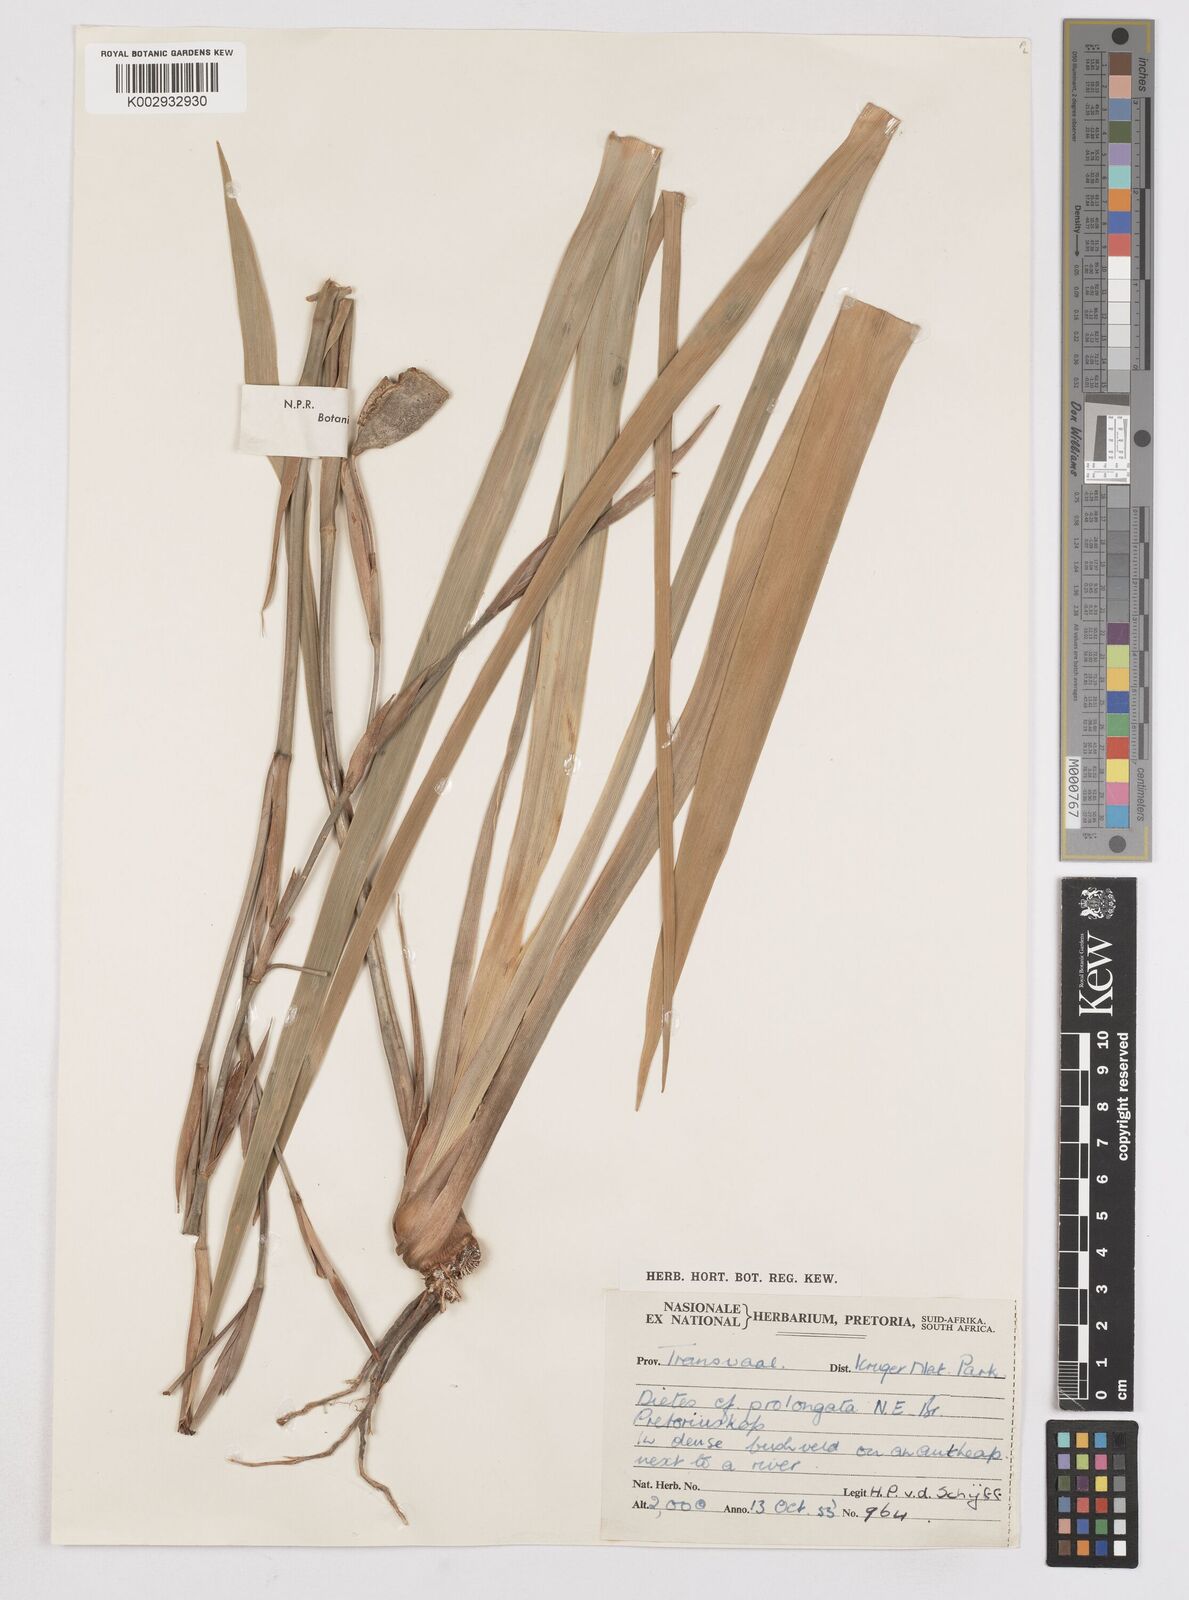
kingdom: Plantae
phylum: Tracheophyta
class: Liliopsida
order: Asparagales
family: Iridaceae
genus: Dietes
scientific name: Dietes iridioides
